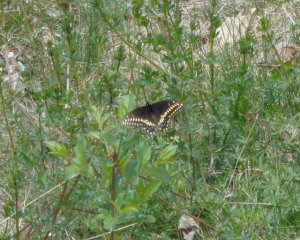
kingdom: Animalia
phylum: Arthropoda
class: Insecta
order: Lepidoptera
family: Papilionidae
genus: Papilio
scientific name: Papilio polyxenes
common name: Black Swallowtail
